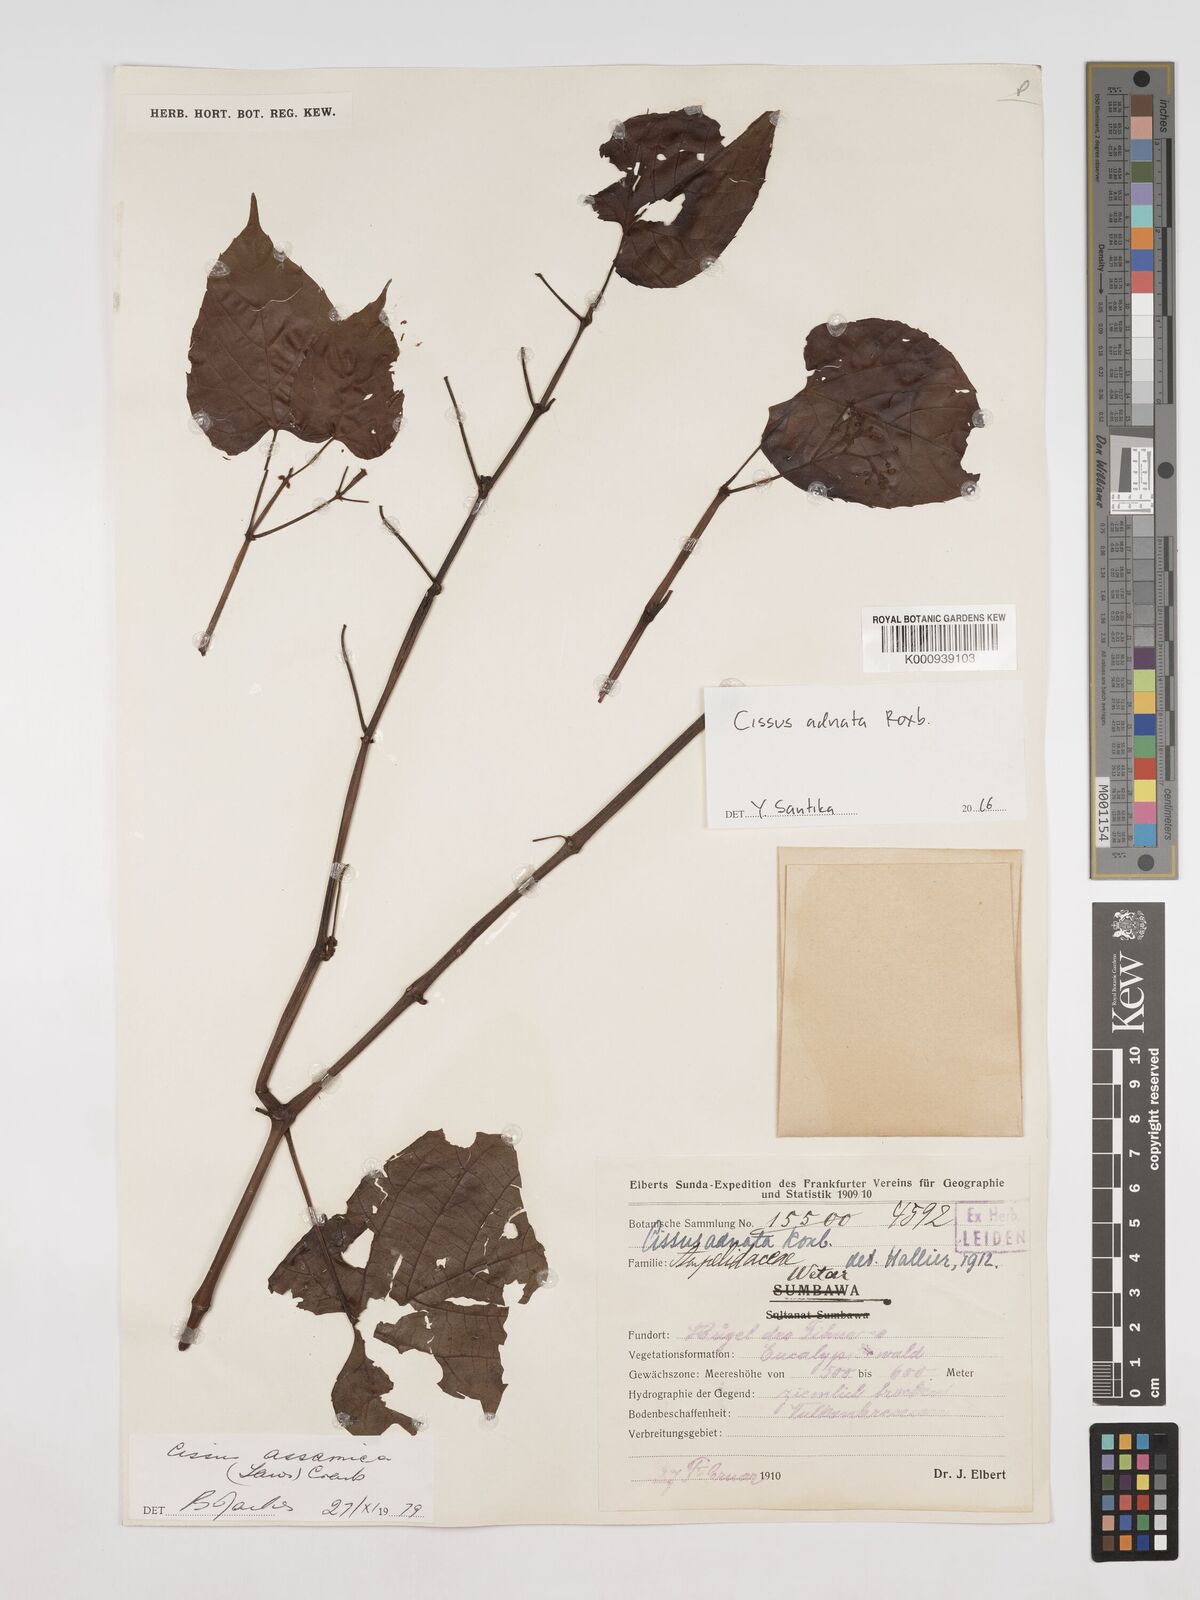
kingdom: Plantae
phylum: Tracheophyta
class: Magnoliopsida
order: Vitales
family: Vitaceae
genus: Cissus
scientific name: Cissus adnata
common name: Heart-leaf-grape
